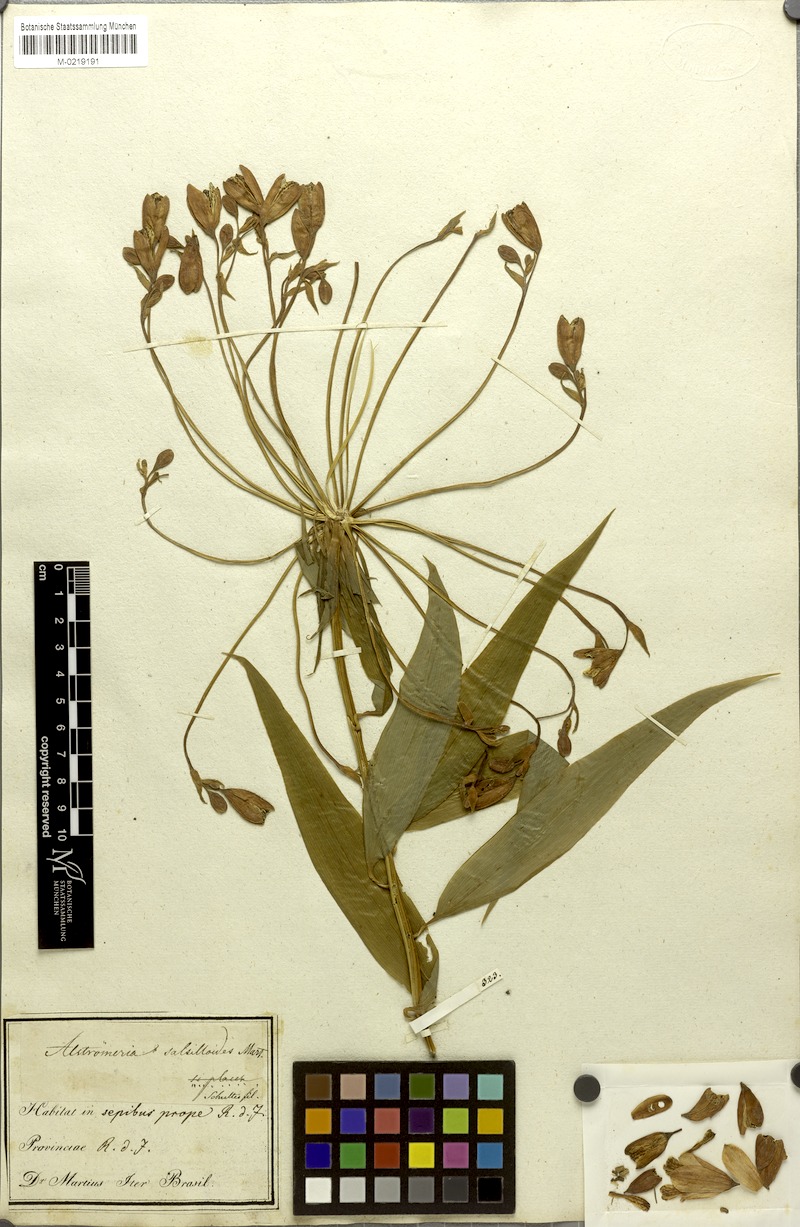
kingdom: Plantae
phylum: Tracheophyta
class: Liliopsida
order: Liliales
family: Alstroemeriaceae
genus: Bomarea
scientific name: Bomarea edulis
